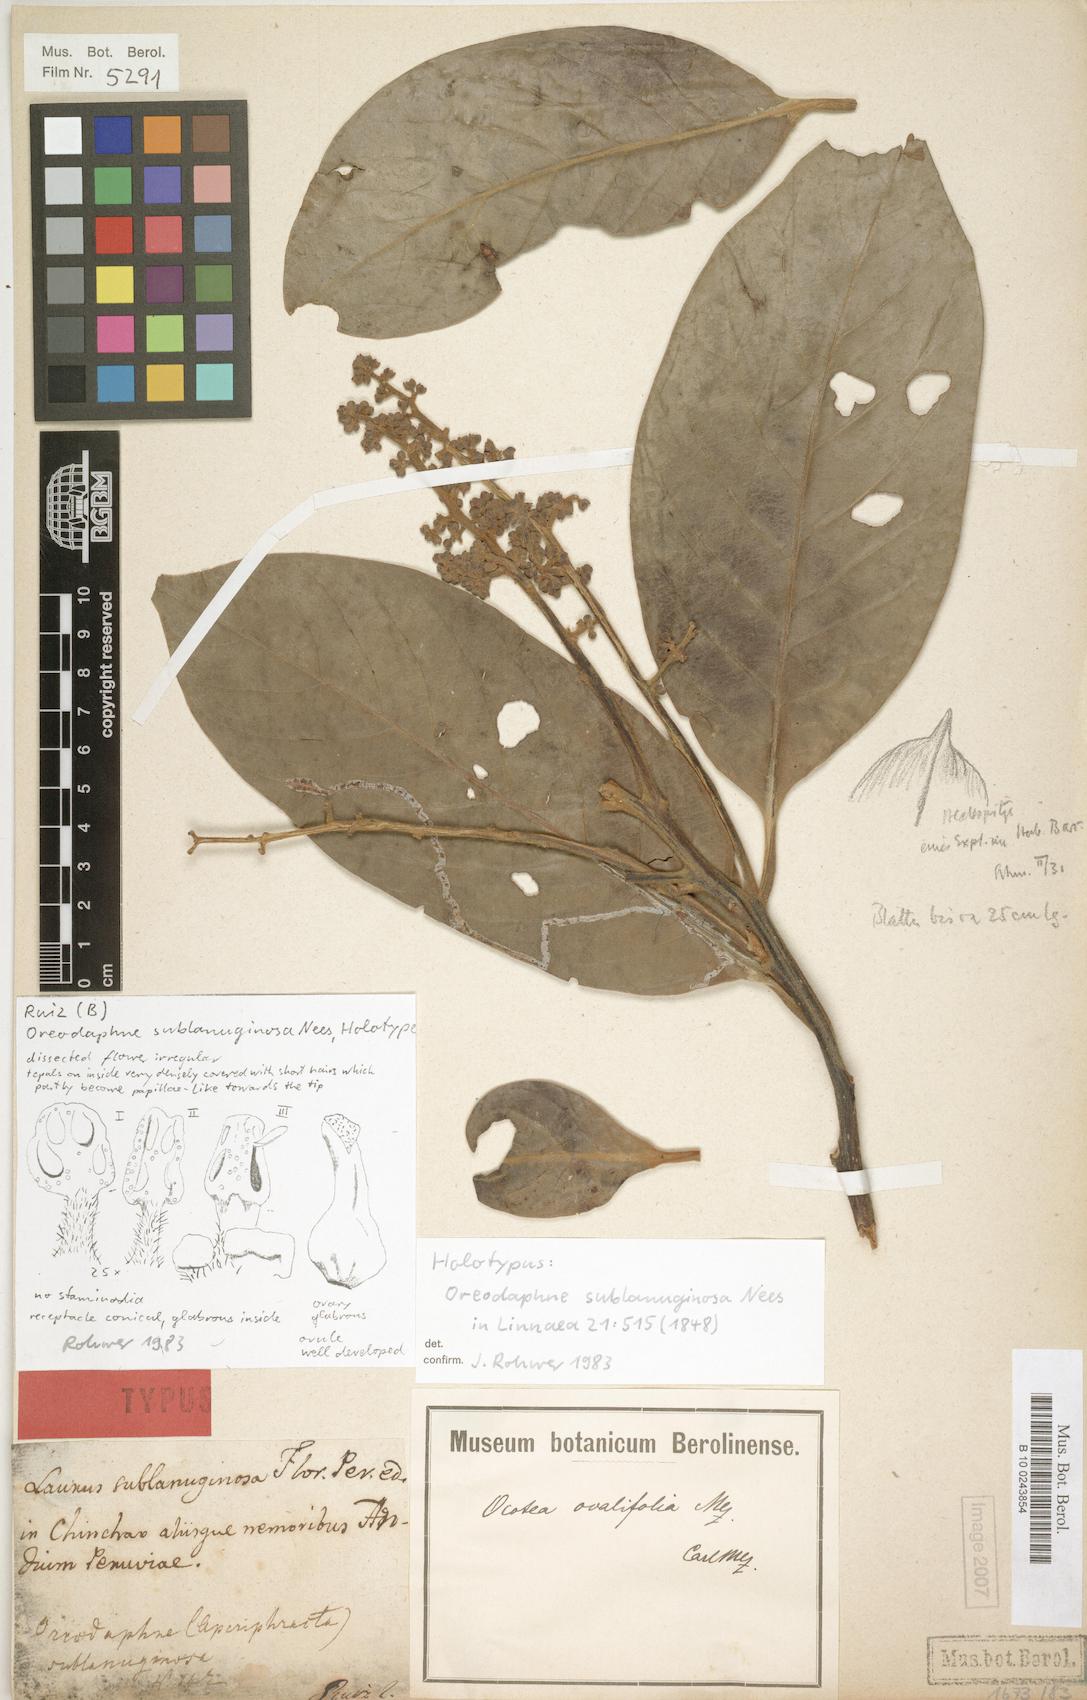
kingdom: Plantae
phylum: Tracheophyta
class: Magnoliopsida
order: Laurales
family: Lauraceae
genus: Ocotea
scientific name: Ocotea ovalifolia
